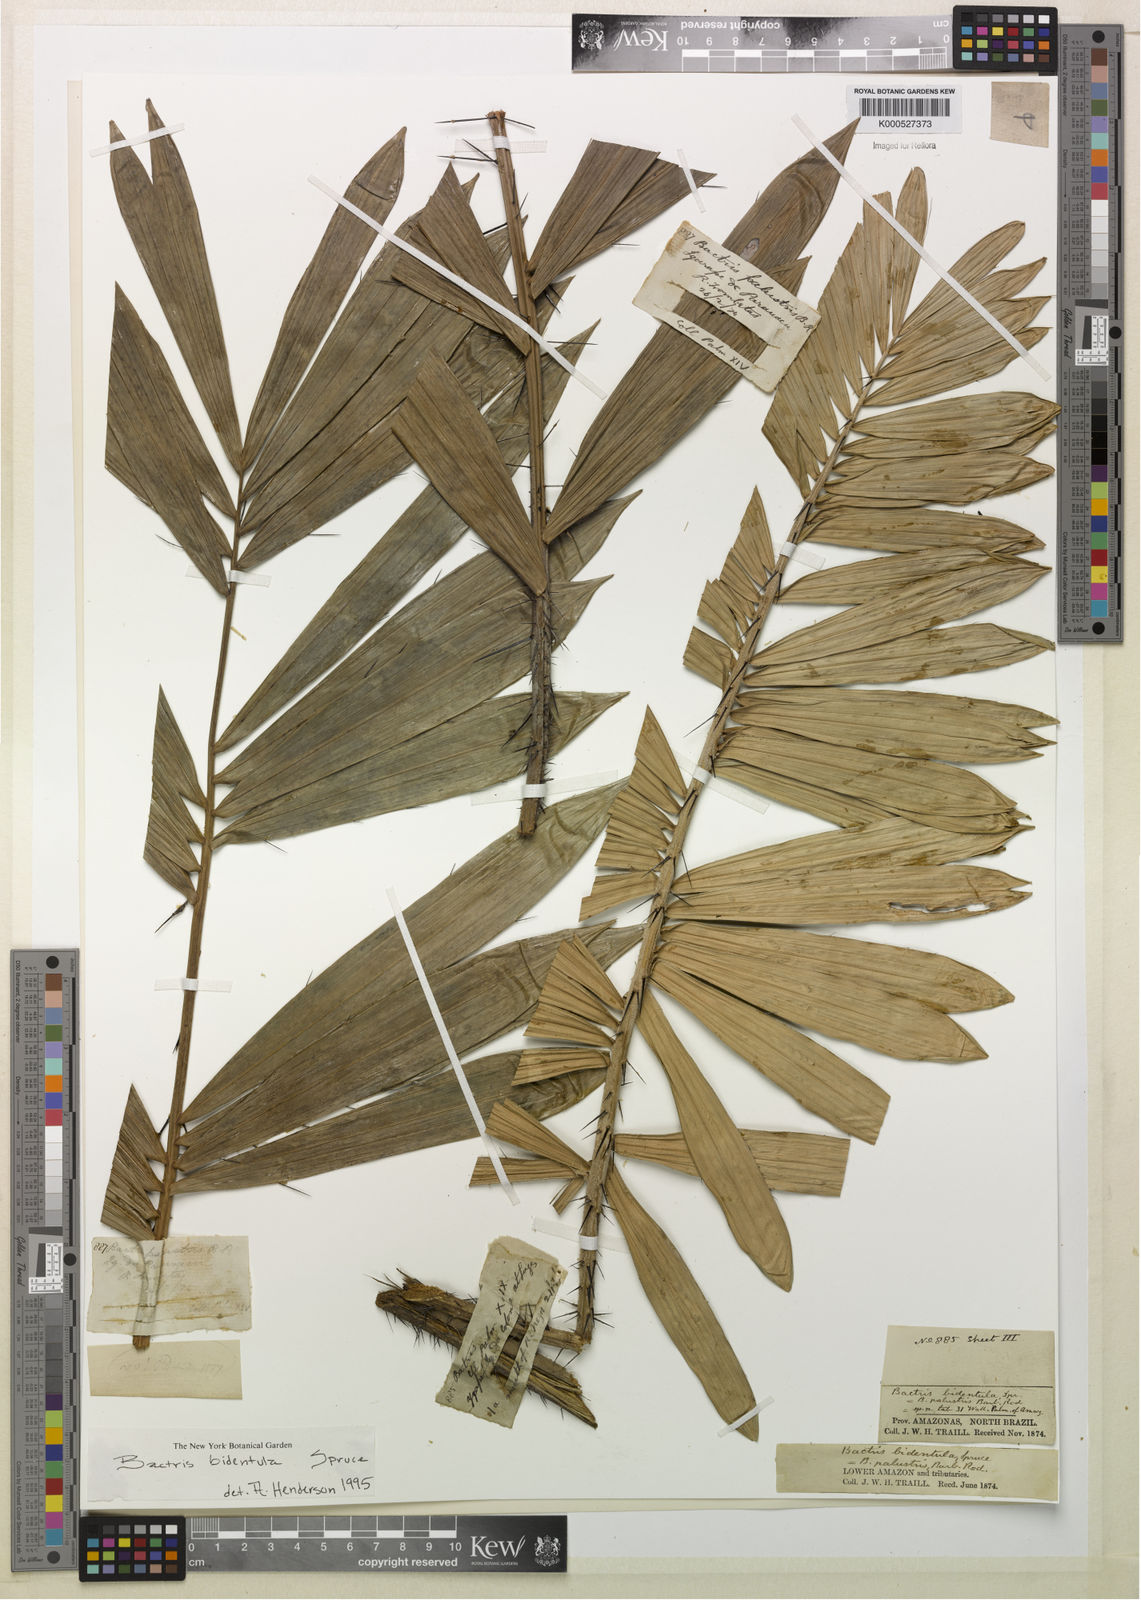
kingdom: Plantae
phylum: Tracheophyta
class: Liliopsida
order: Arecales
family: Arecaceae
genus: Bactris
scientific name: Bactris bidentula
